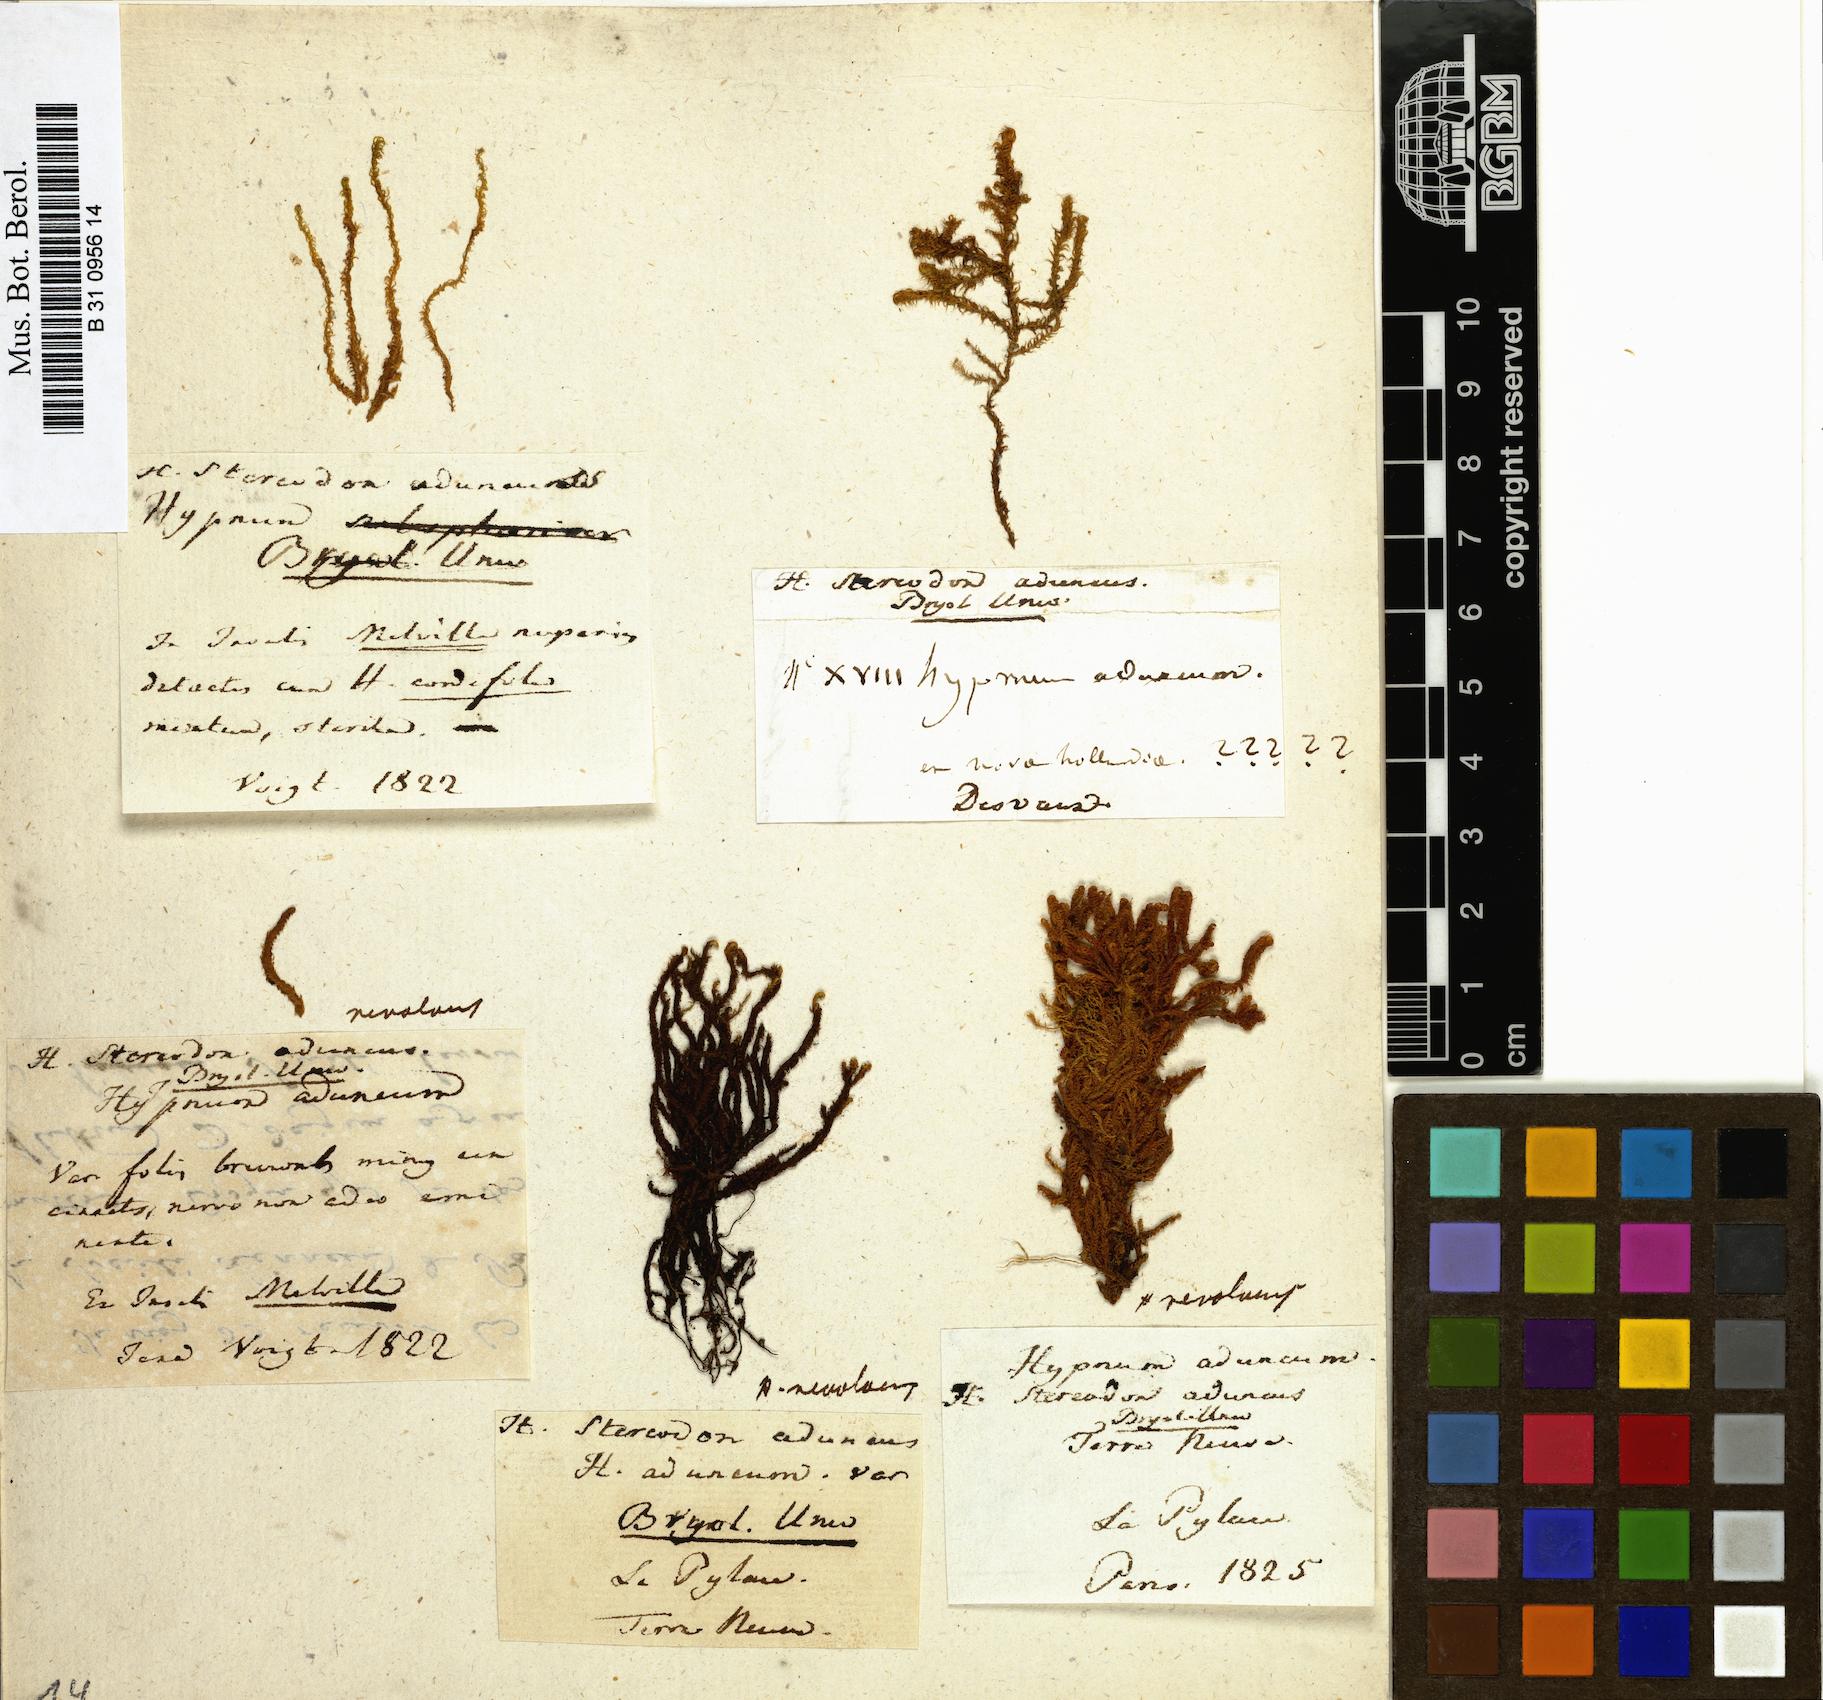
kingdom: Plantae
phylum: Bryophyta
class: Bryopsida
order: Hypnales
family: Amblystegiaceae
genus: Drepanocladus
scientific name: Drepanocladus aduncus
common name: Knieff's hook moss
